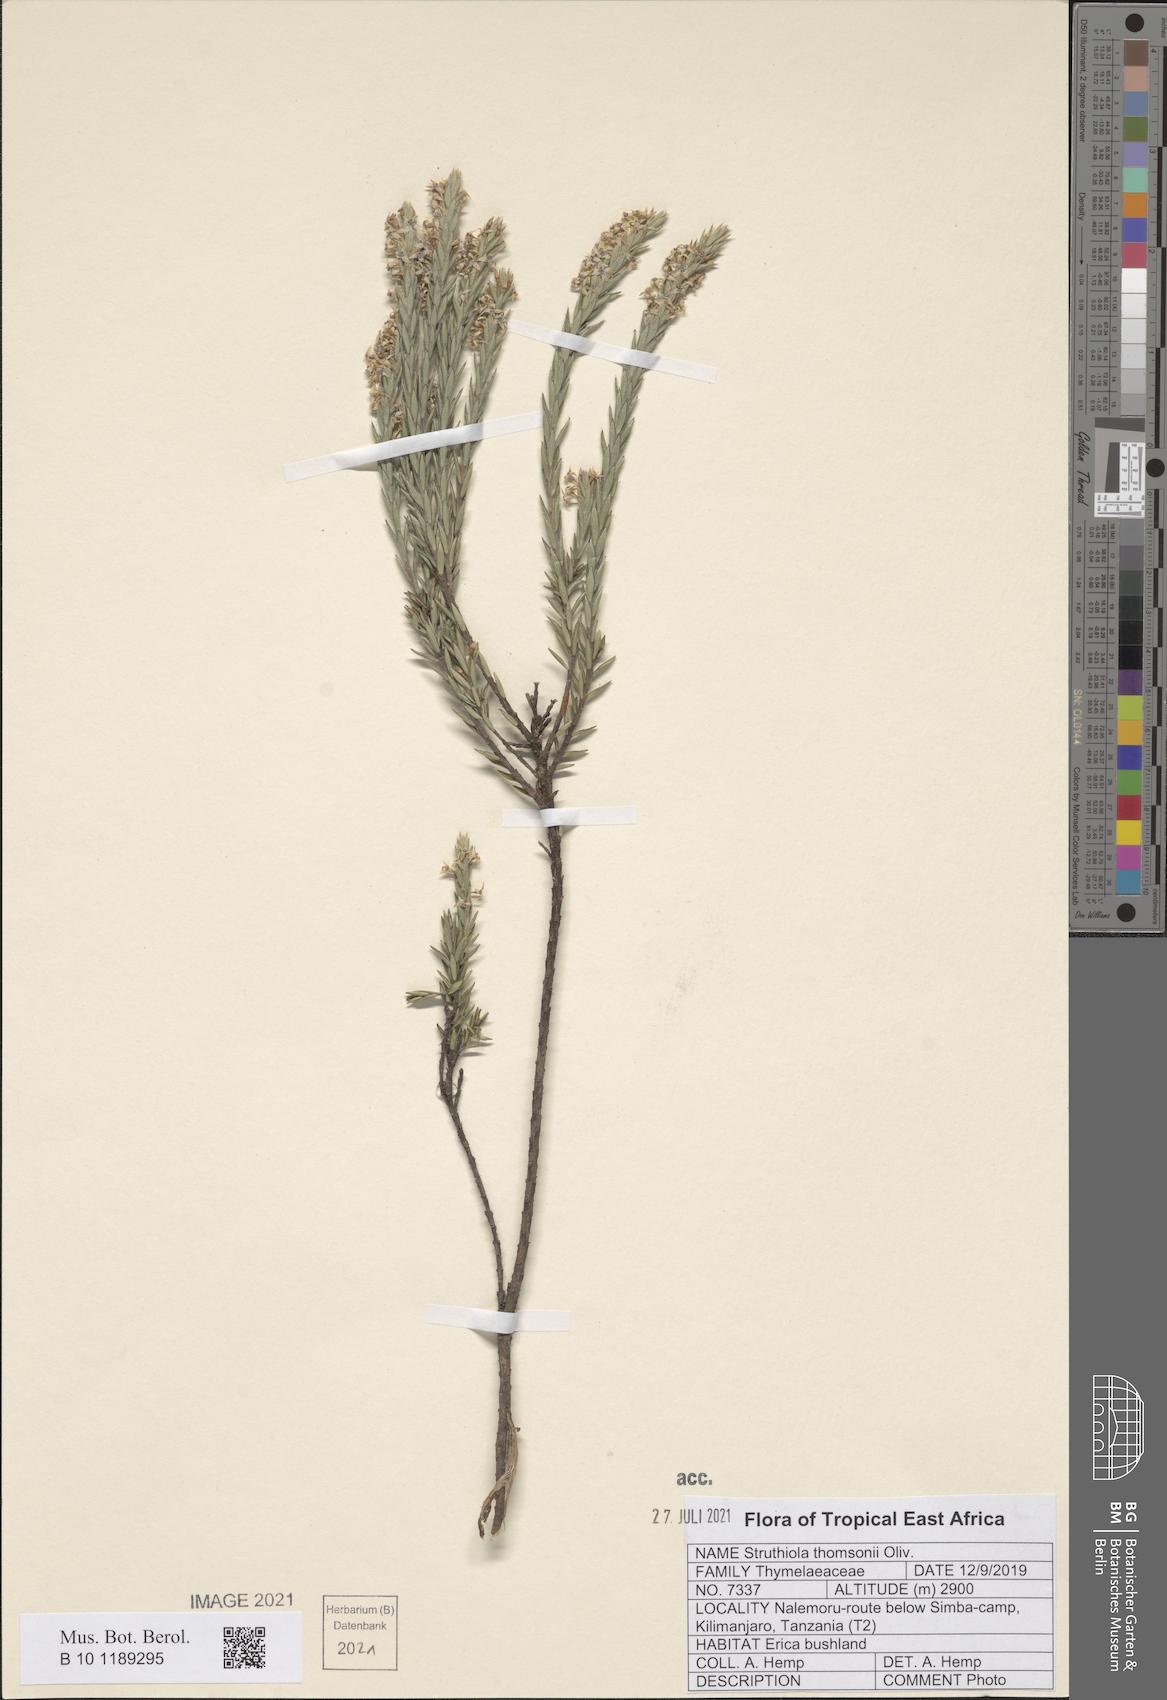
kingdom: Plantae
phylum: Tracheophyta
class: Magnoliopsida
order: Malvales
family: Thymelaeaceae
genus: Struthiola
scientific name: Struthiola thomsonii
